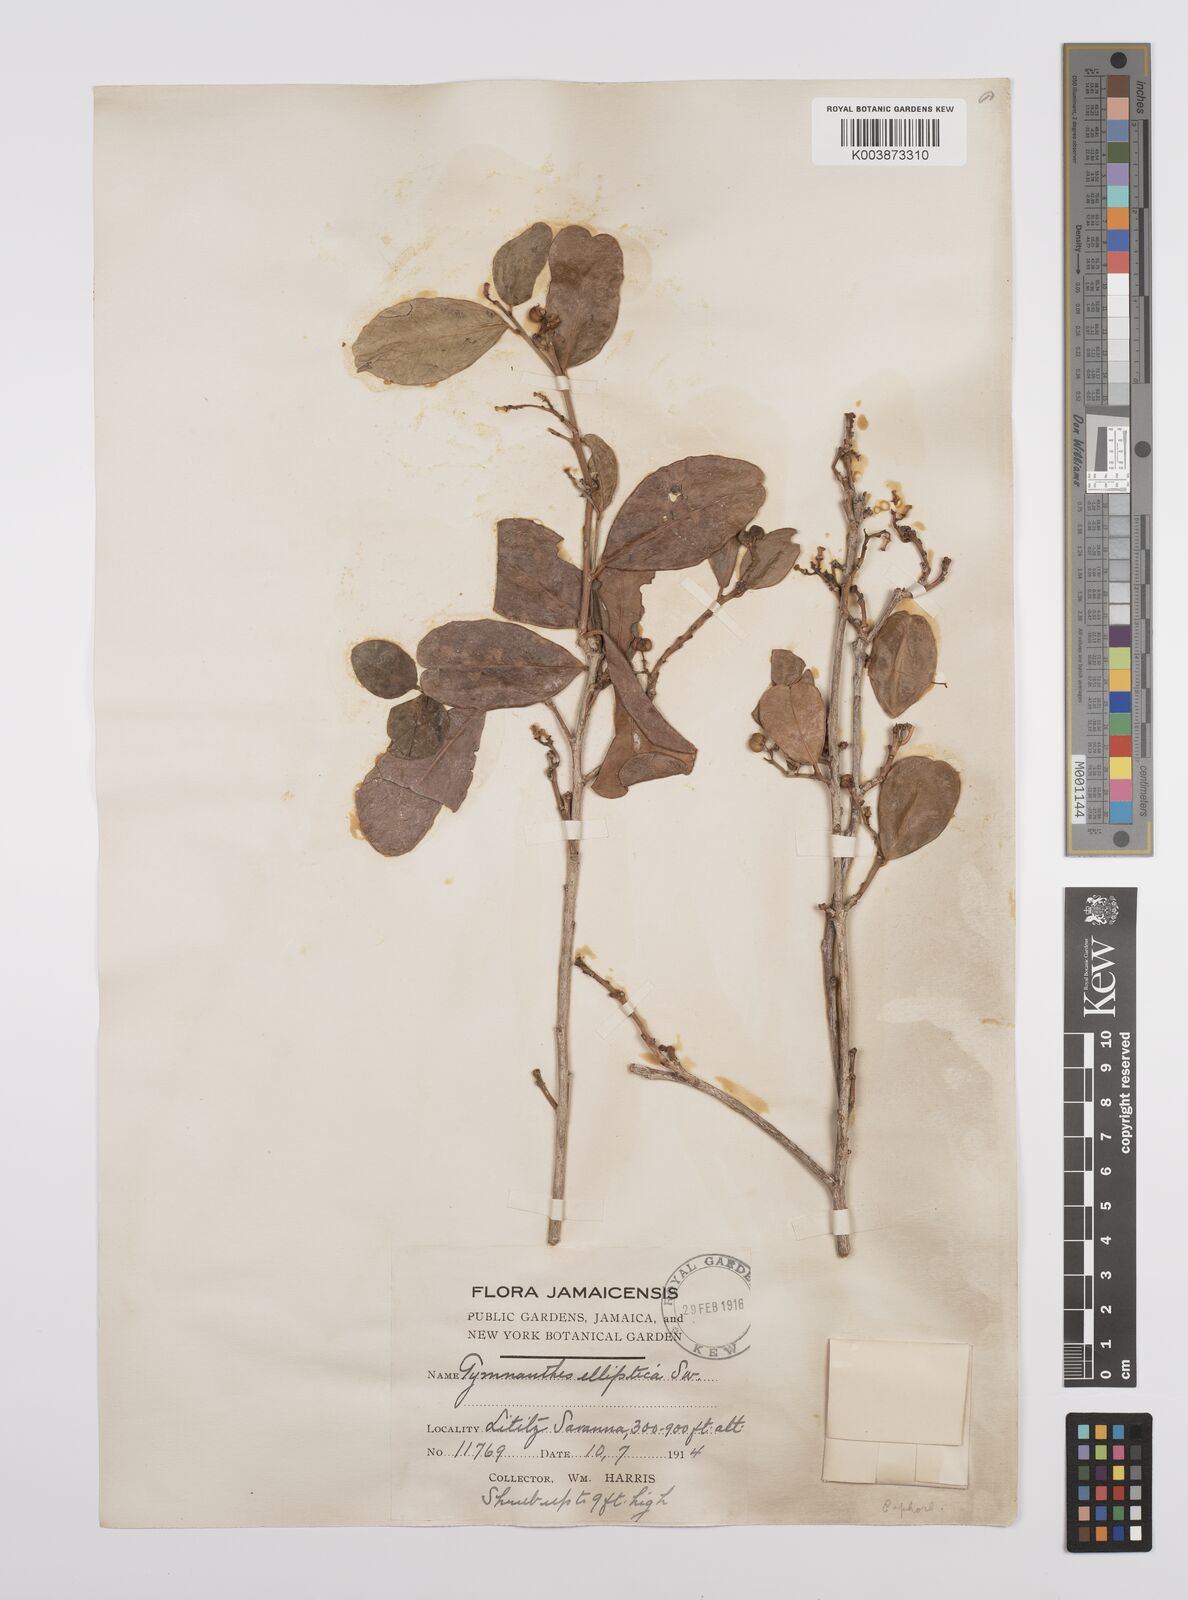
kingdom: Plantae
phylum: Tracheophyta
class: Magnoliopsida
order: Malpighiales
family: Euphorbiaceae
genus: Dendrocousinsia
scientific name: Dendrocousinsia elliptica
